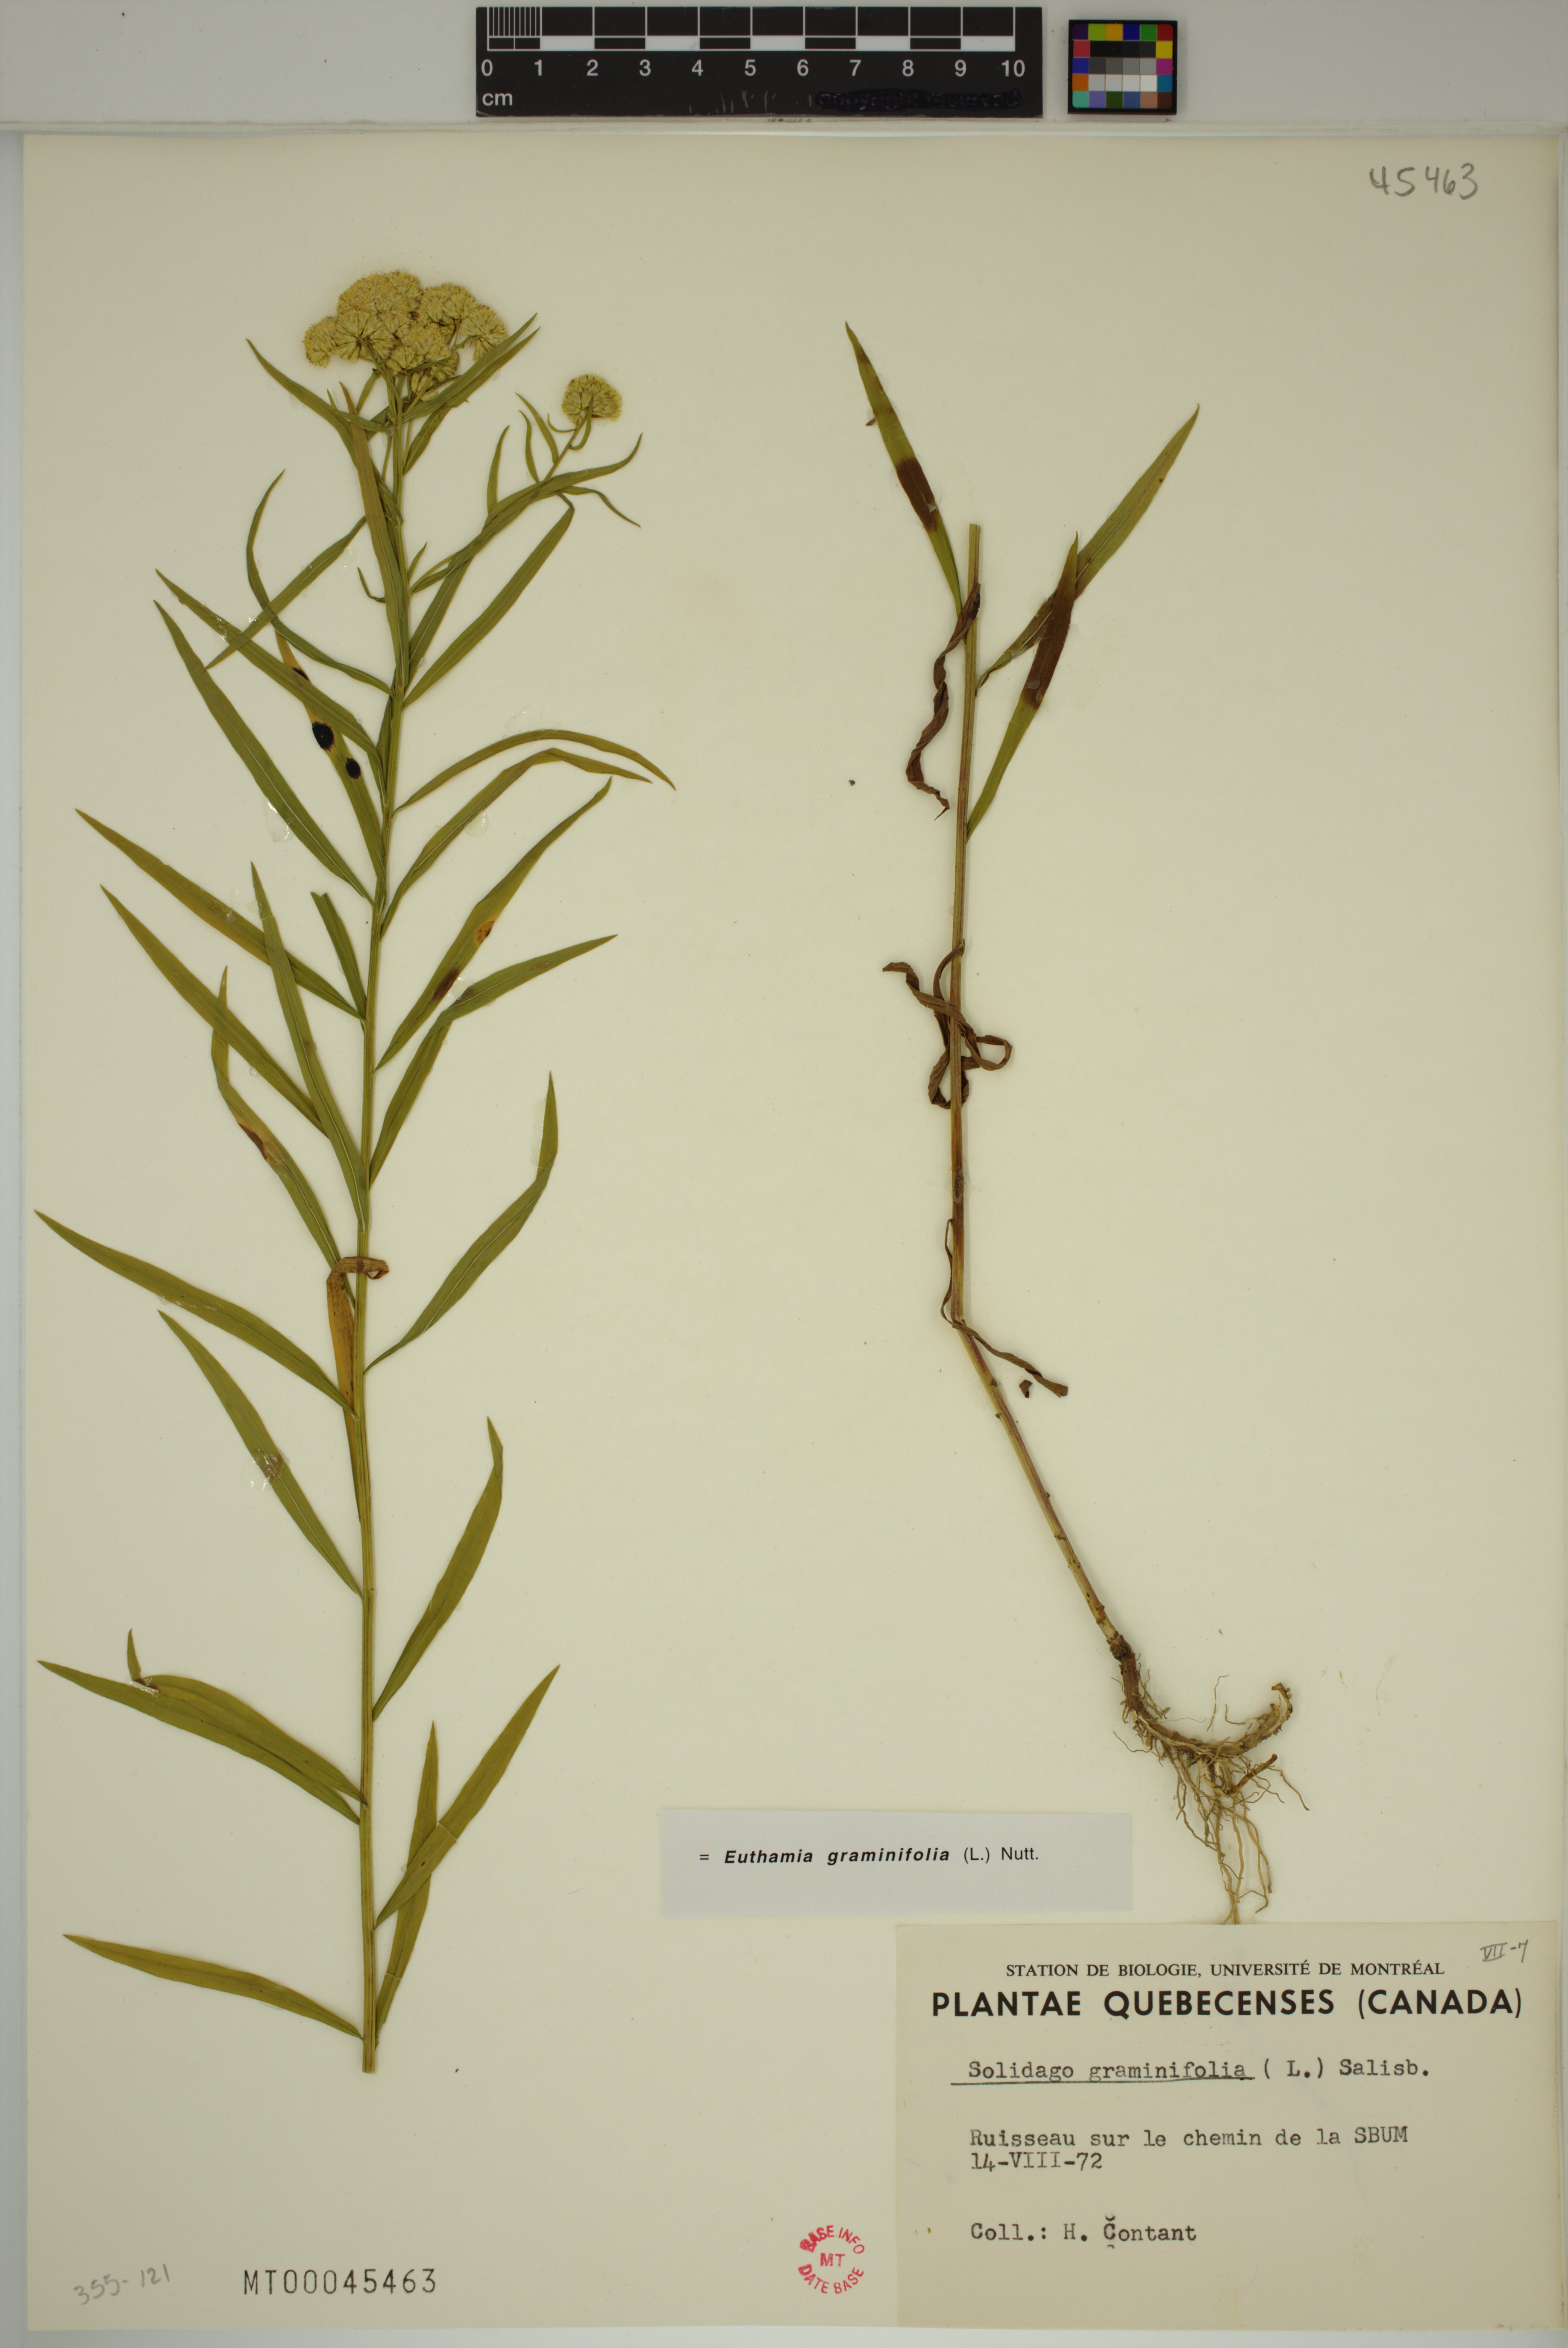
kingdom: Plantae
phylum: Tracheophyta
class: Magnoliopsida
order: Asterales
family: Asteraceae
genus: Euthamia
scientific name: Euthamia graminifolia
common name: Common goldentop
